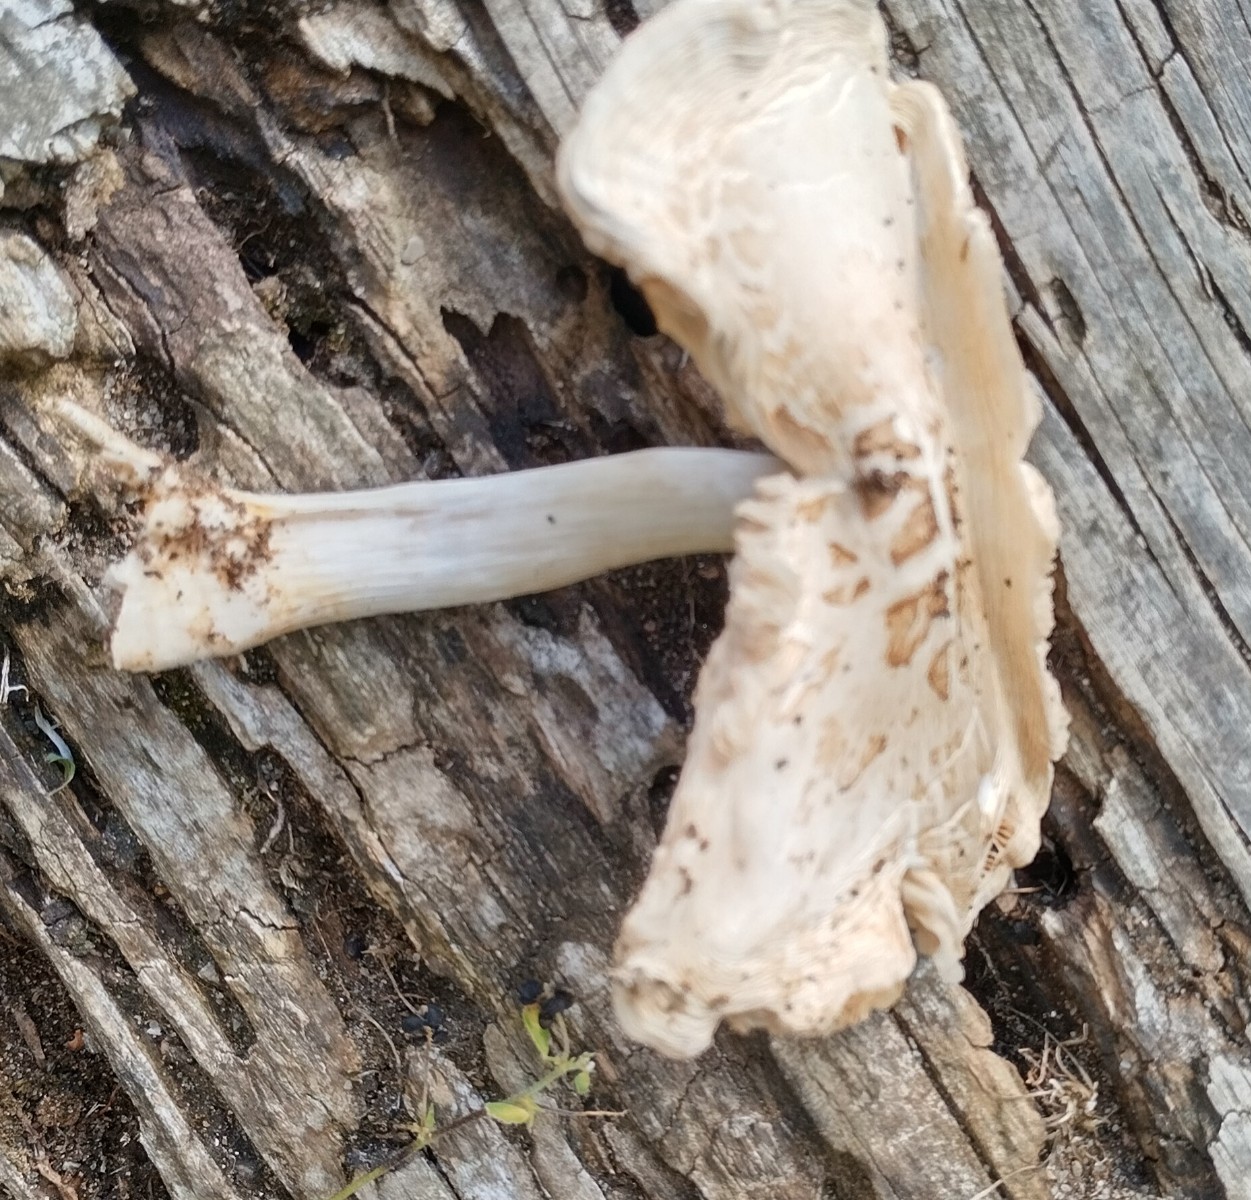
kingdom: Fungi
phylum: Basidiomycota
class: Agaricomycetes
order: Agaricales
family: Pluteaceae
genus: Pluteus
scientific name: Pluteus petasatus
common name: savsmulds-skærmhat
